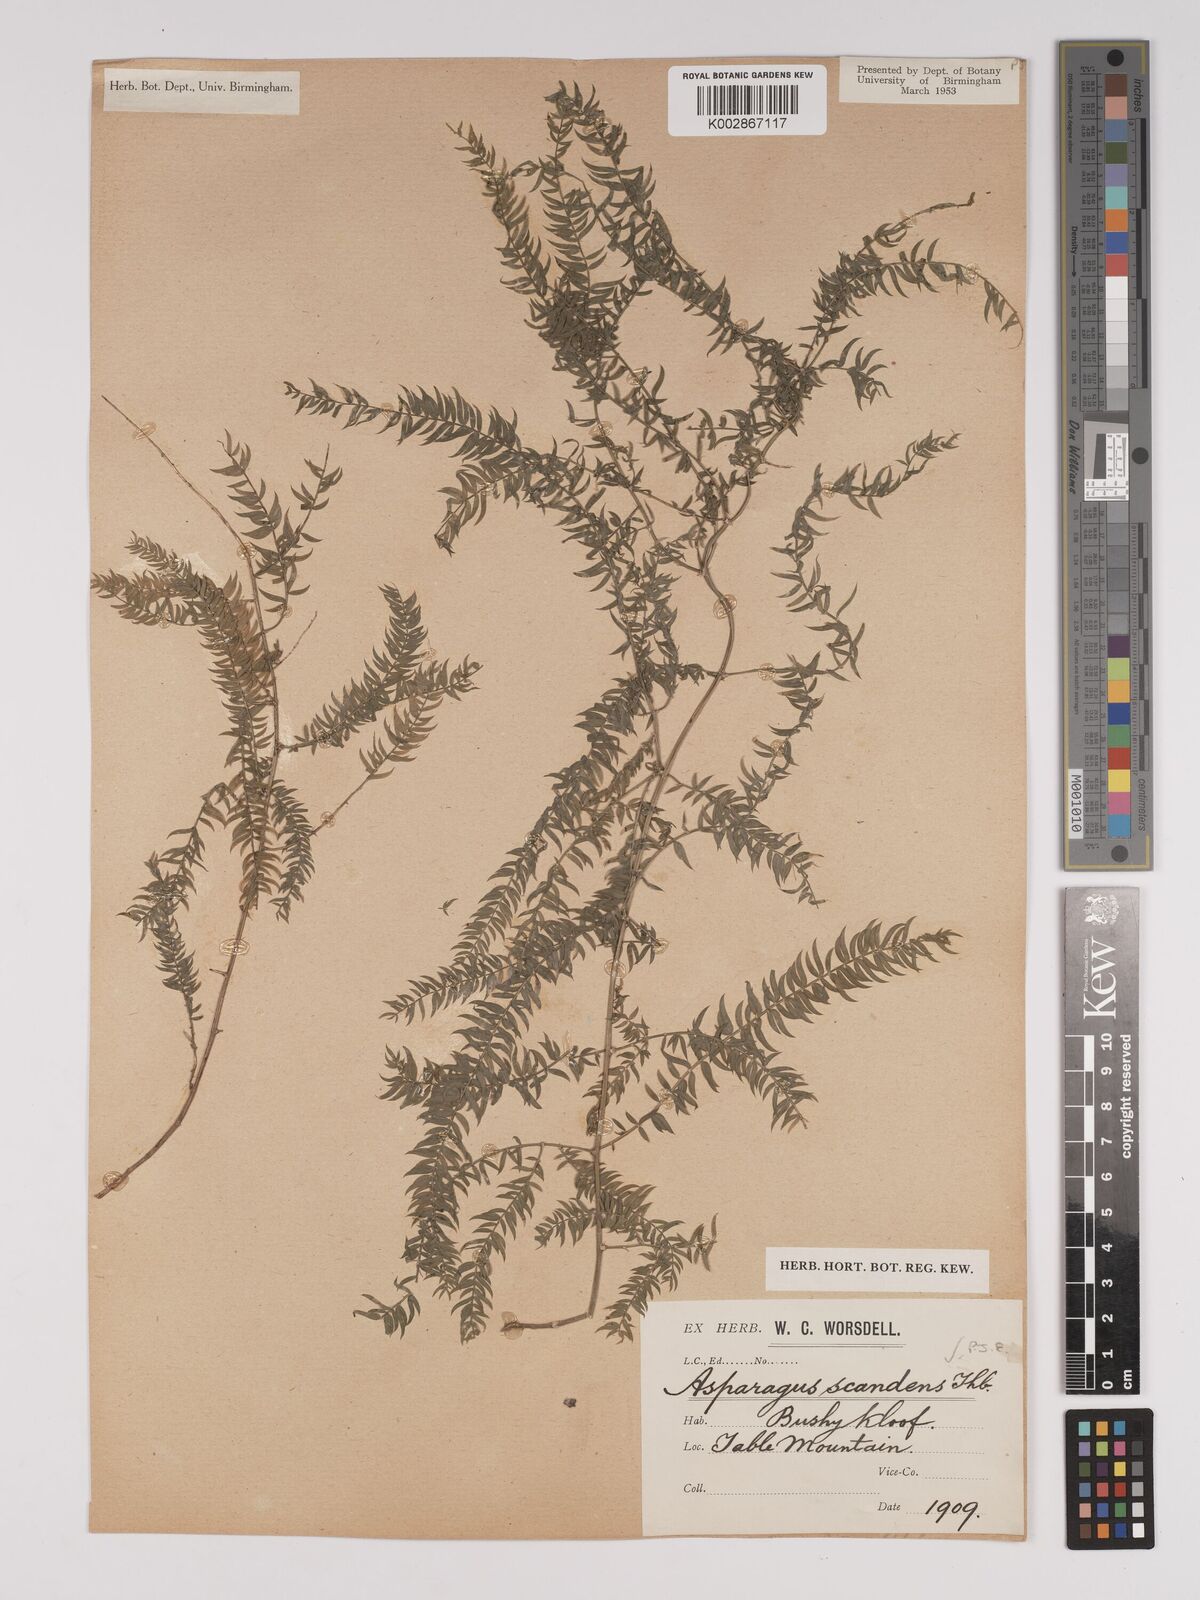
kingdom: Plantae
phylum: Tracheophyta
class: Liliopsida
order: Asparagales
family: Asparagaceae
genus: Asparagus
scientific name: Asparagus scandens
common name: Asparagus-fern
